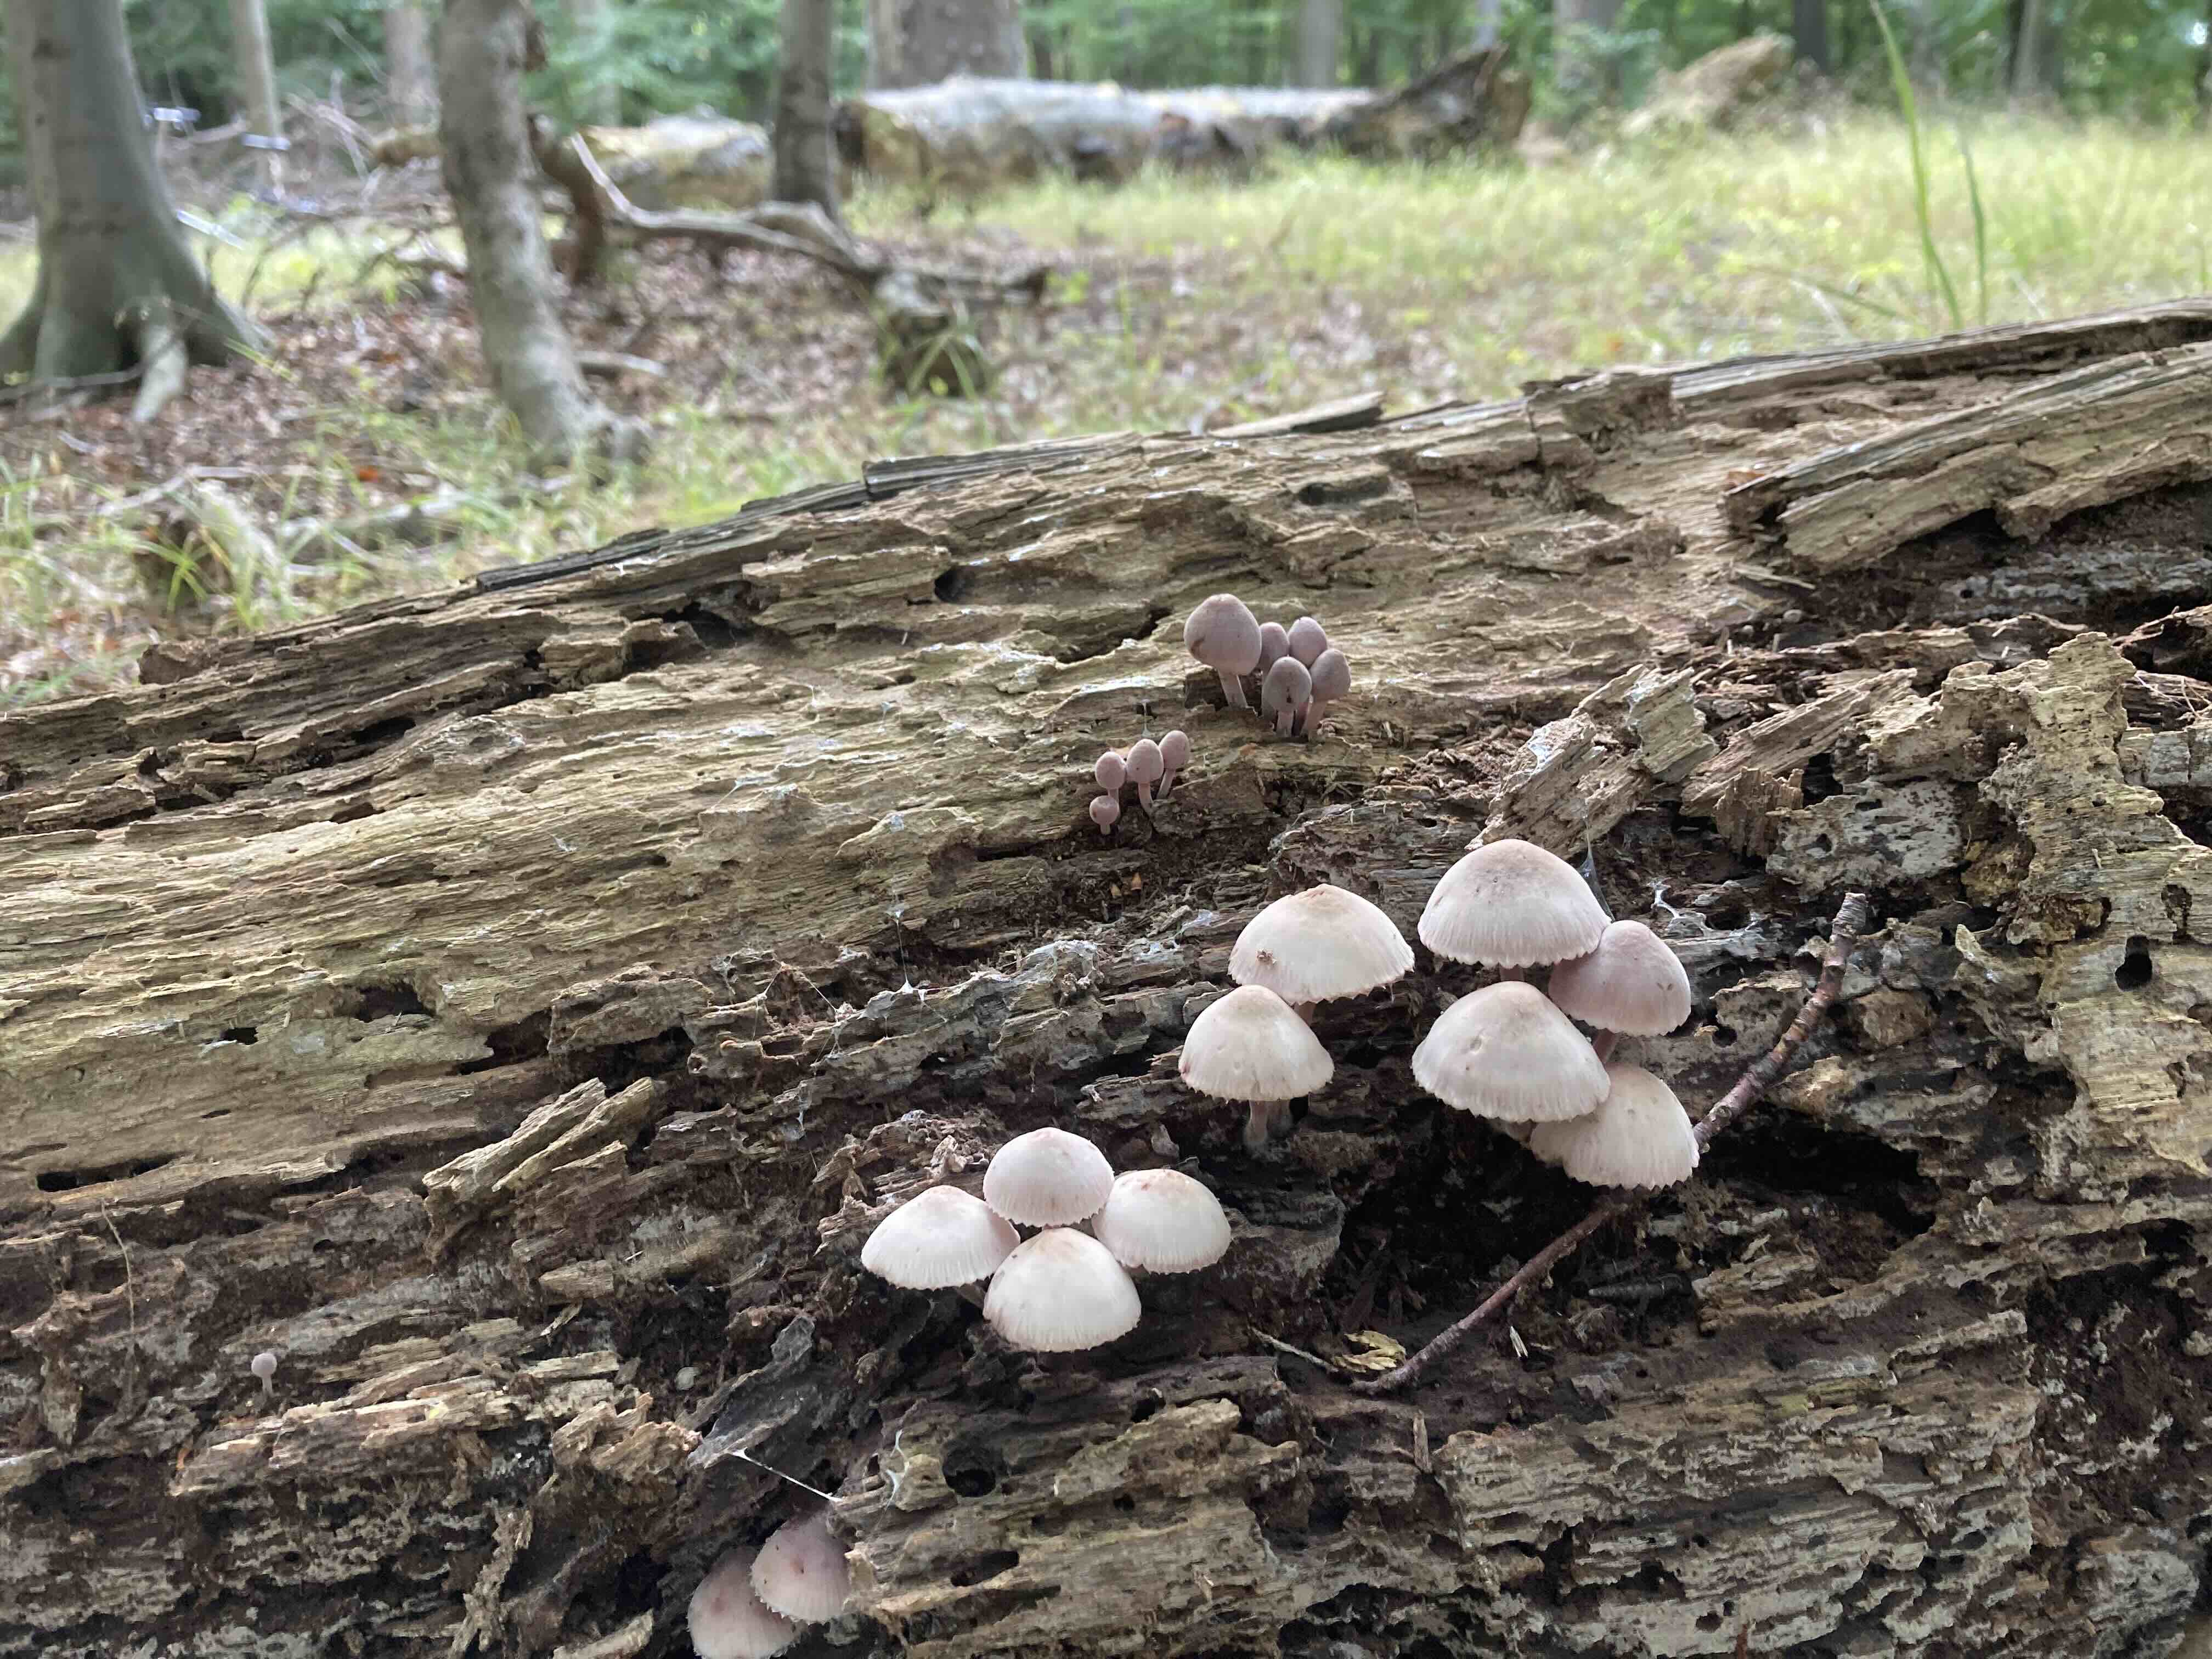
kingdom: Fungi
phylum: Basidiomycota
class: Agaricomycetes
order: Agaricales
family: Mycenaceae
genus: Mycena
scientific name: Mycena haematopus
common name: blødende huesvamp
